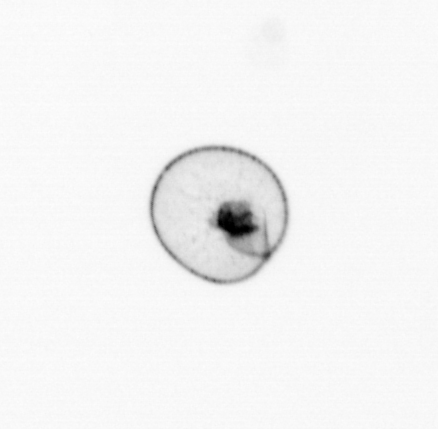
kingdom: Chromista
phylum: Myzozoa
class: Dinophyceae
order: Noctilucales
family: Noctilucaceae
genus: Noctiluca
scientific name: Noctiluca scintillans
